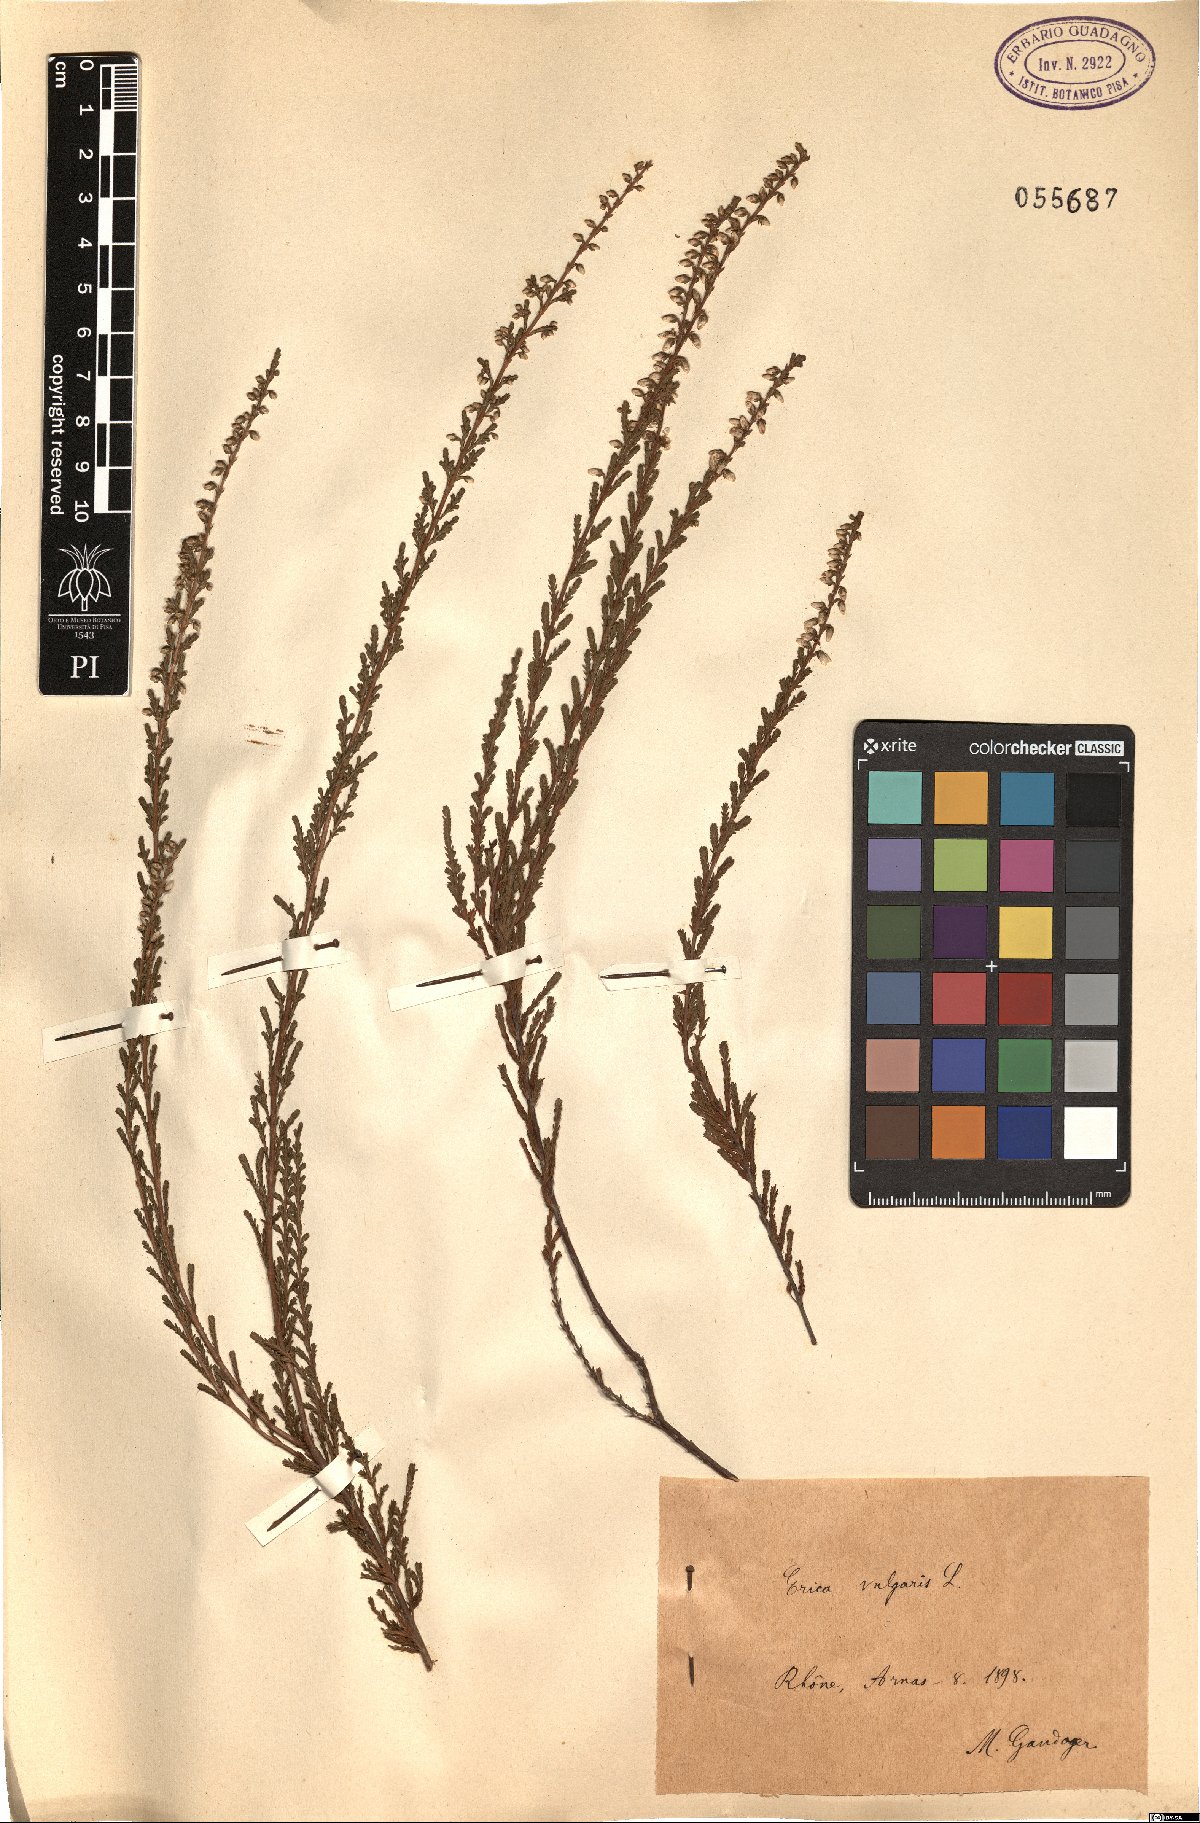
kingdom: Plantae
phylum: Tracheophyta
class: Magnoliopsida
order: Ericales
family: Ericaceae
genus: Calluna
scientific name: Calluna vulgaris
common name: Heather
